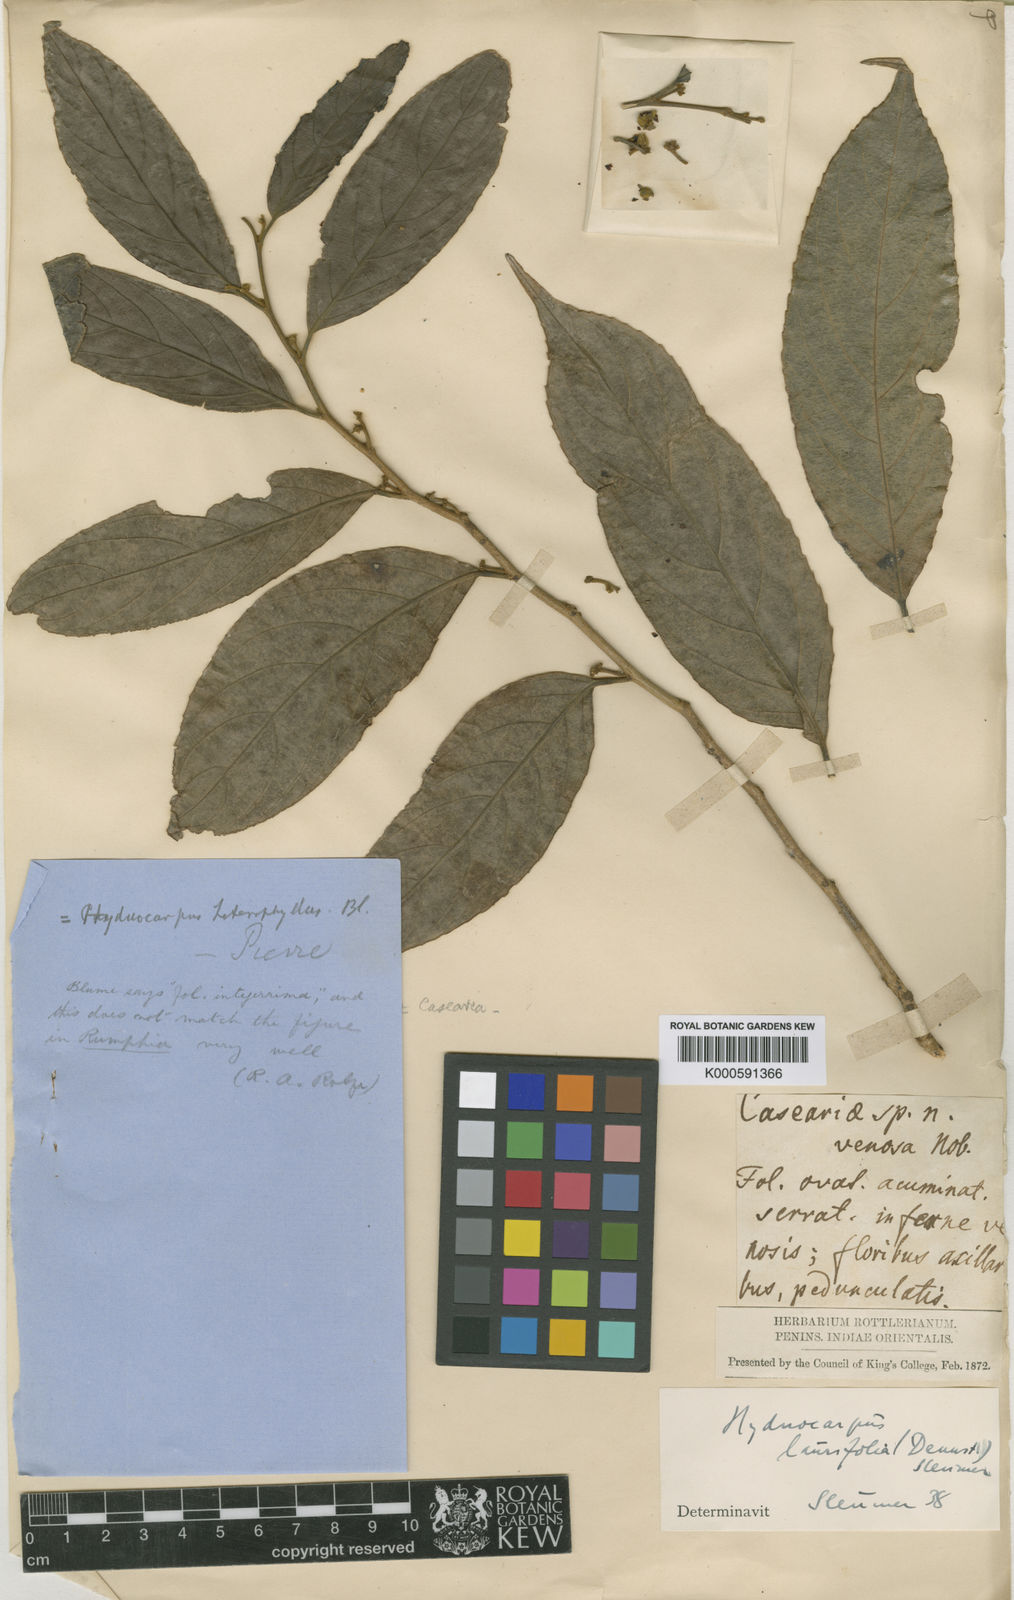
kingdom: Plantae
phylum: Tracheophyta
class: Magnoliopsida
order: Malpighiales
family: Achariaceae
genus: Hydnocarpus
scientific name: Hydnocarpus pentandrus
